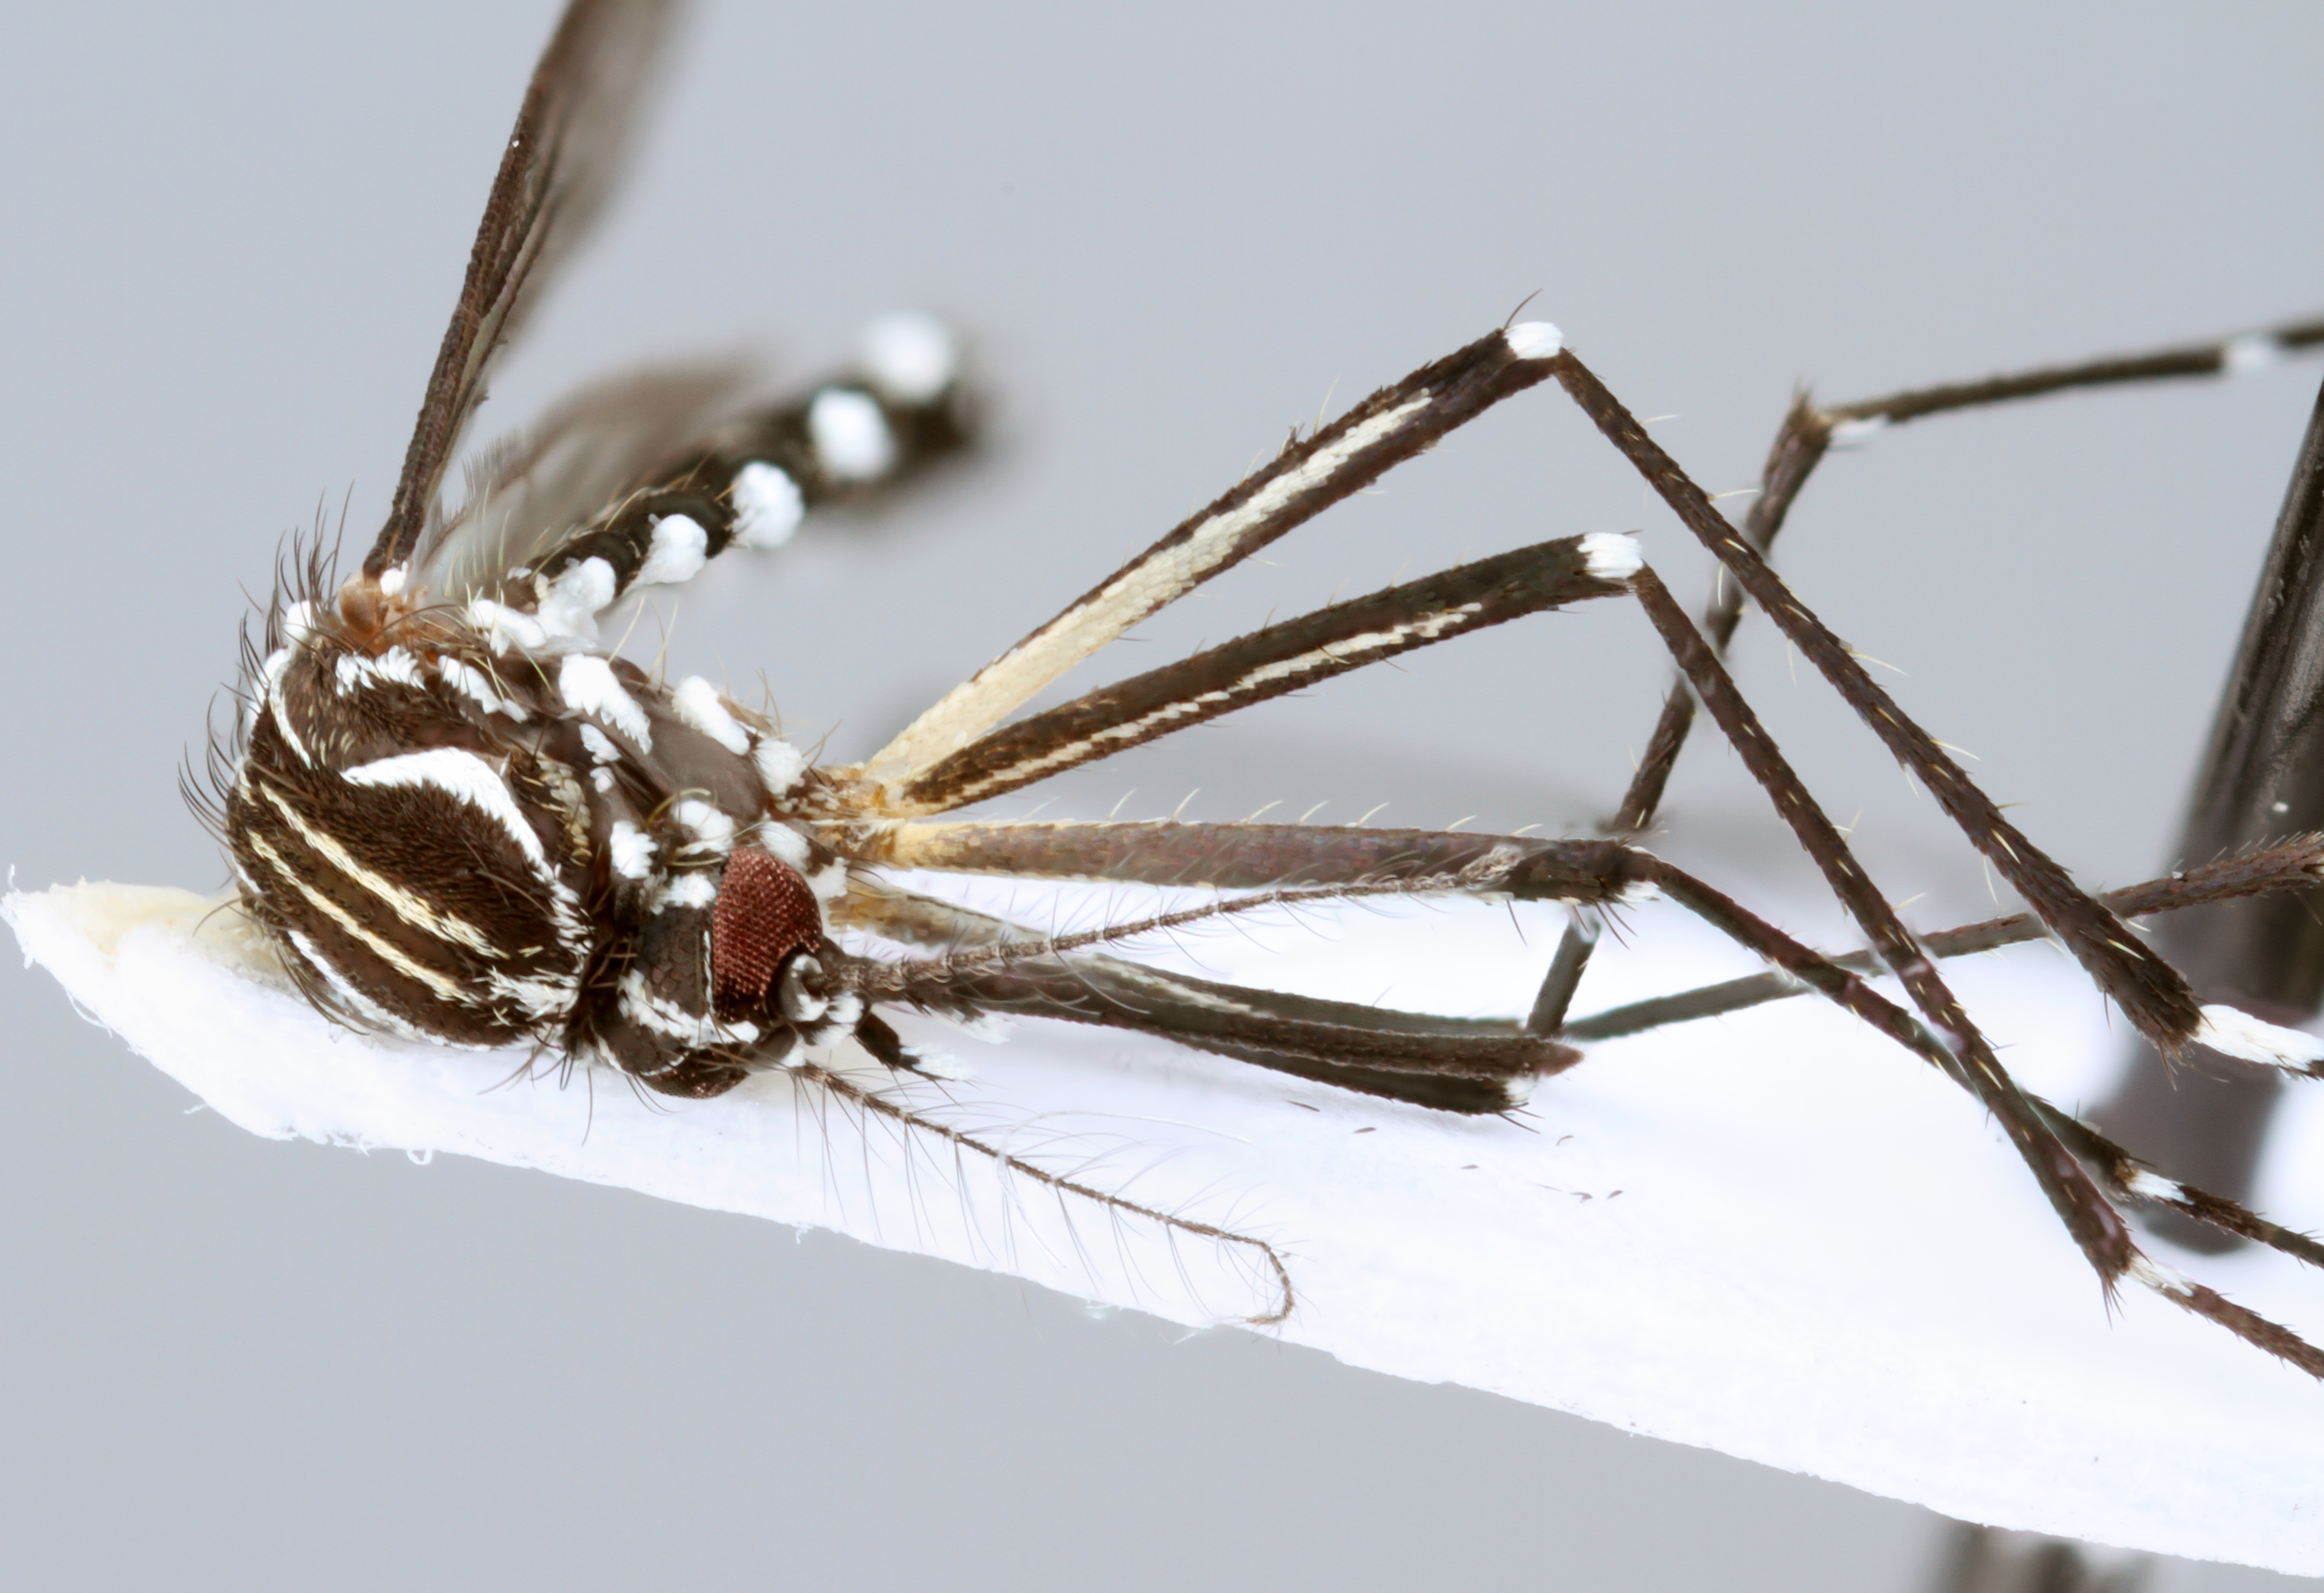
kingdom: Animalia
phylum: Arthropoda
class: Insecta
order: Diptera
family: Culicidae
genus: Aedes
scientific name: Aedes aegypti
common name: Yellow fever mosquito
